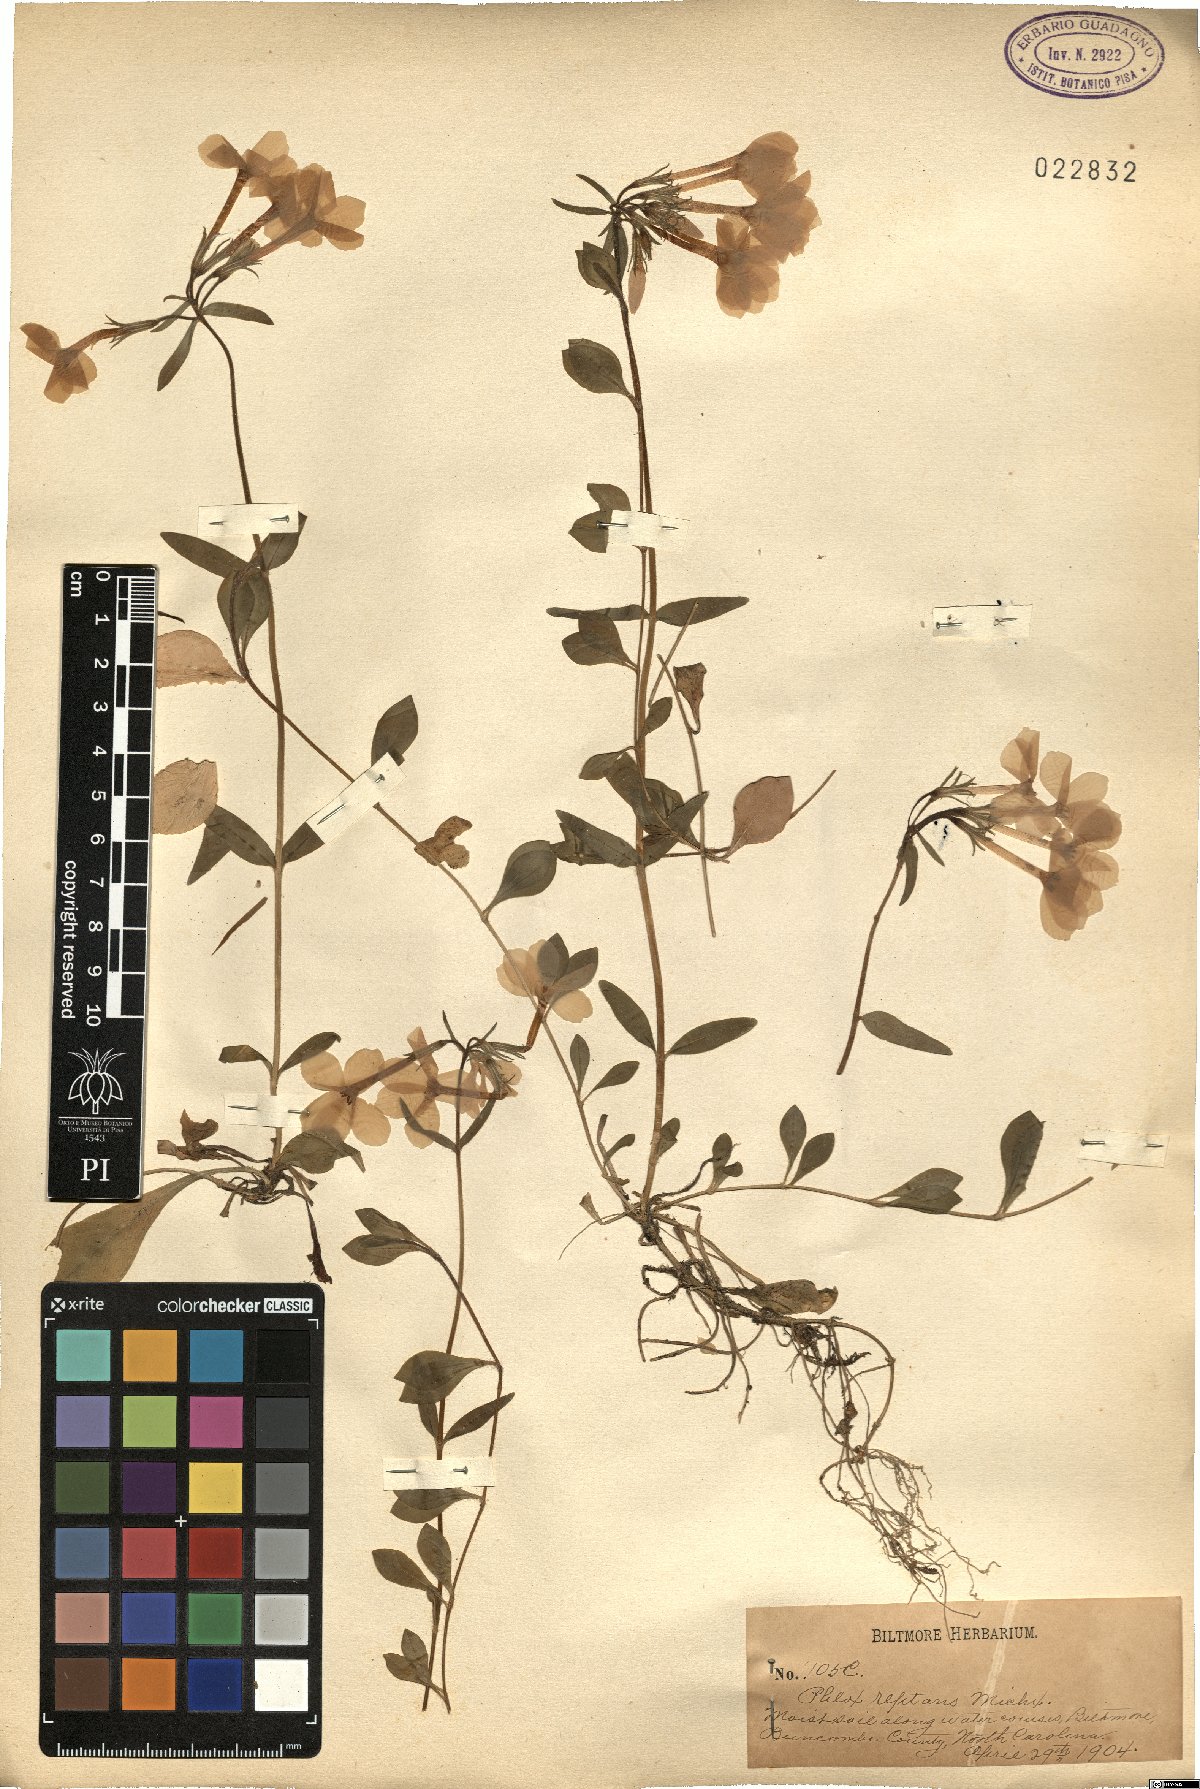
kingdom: Plantae
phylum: Tracheophyta
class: Magnoliopsida
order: Ericales
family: Polemoniaceae
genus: Phlox
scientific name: Phlox stolonifera
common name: Creeping phlox
